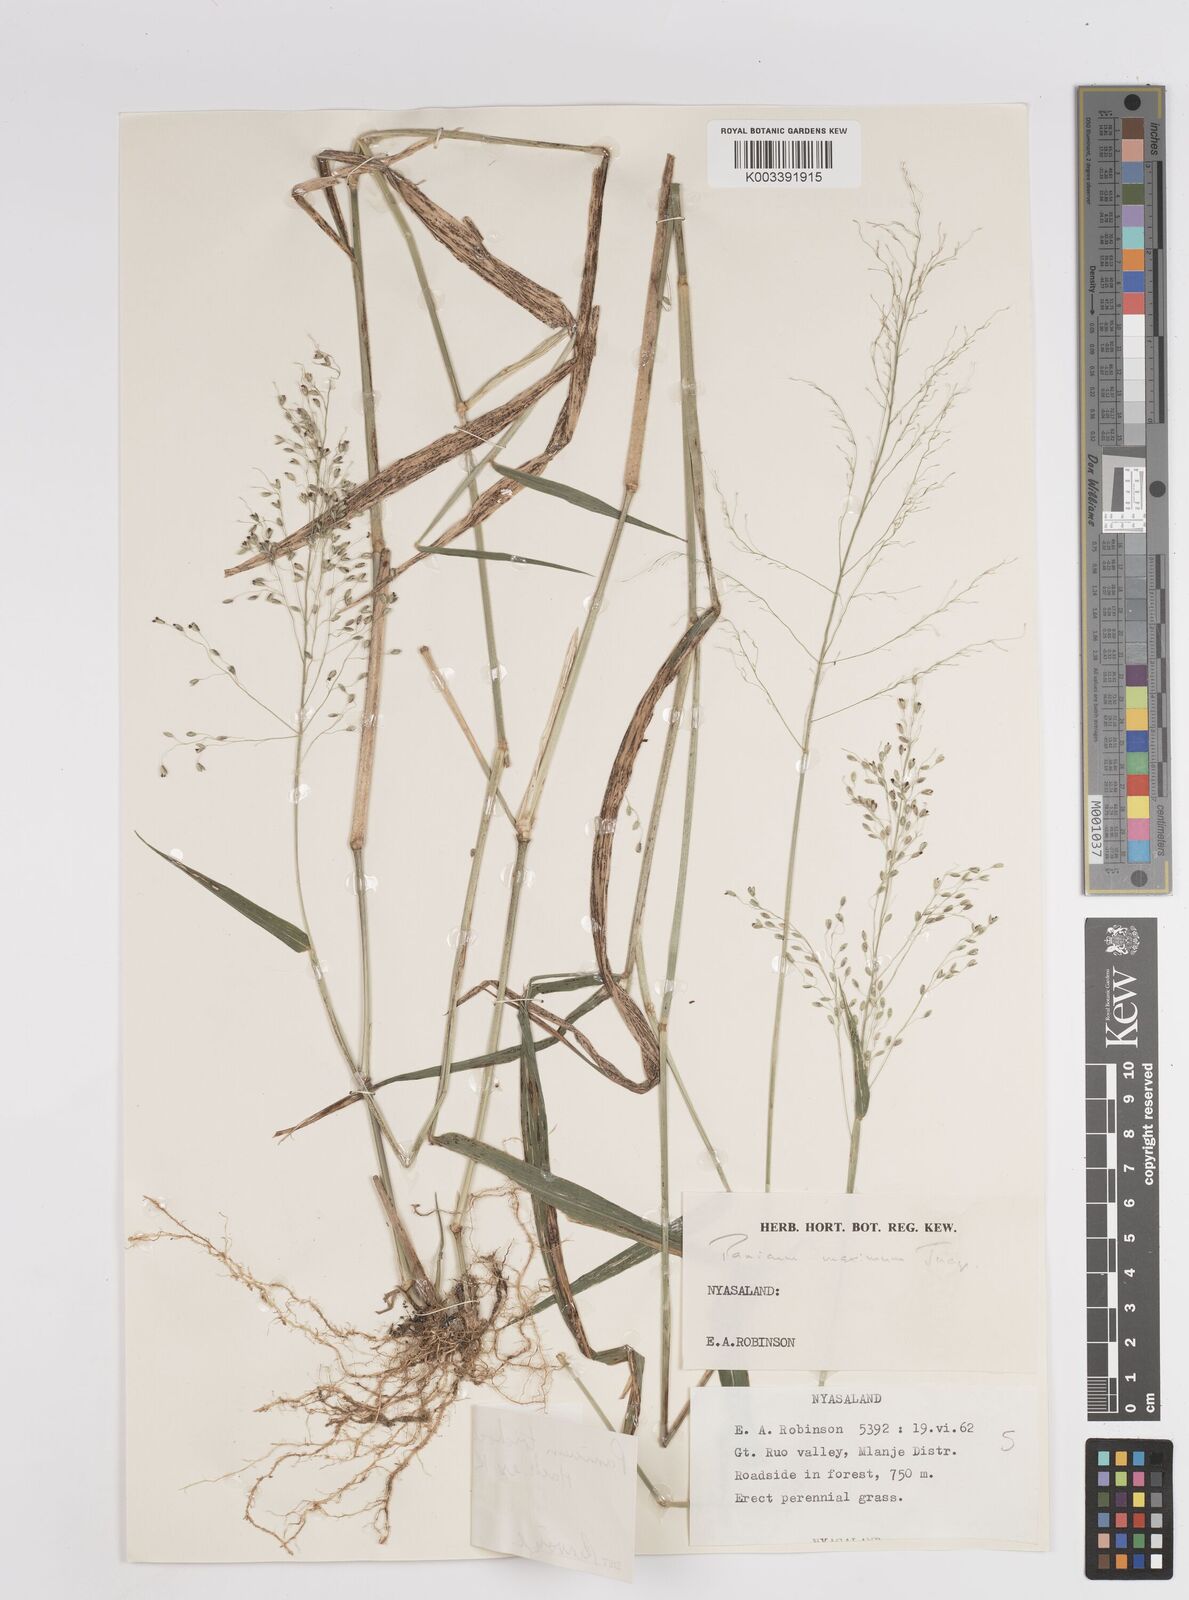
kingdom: Plantae
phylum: Tracheophyta
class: Liliopsida
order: Poales
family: Poaceae
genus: Panicum
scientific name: Panicum trichocladum
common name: Donkey grass
